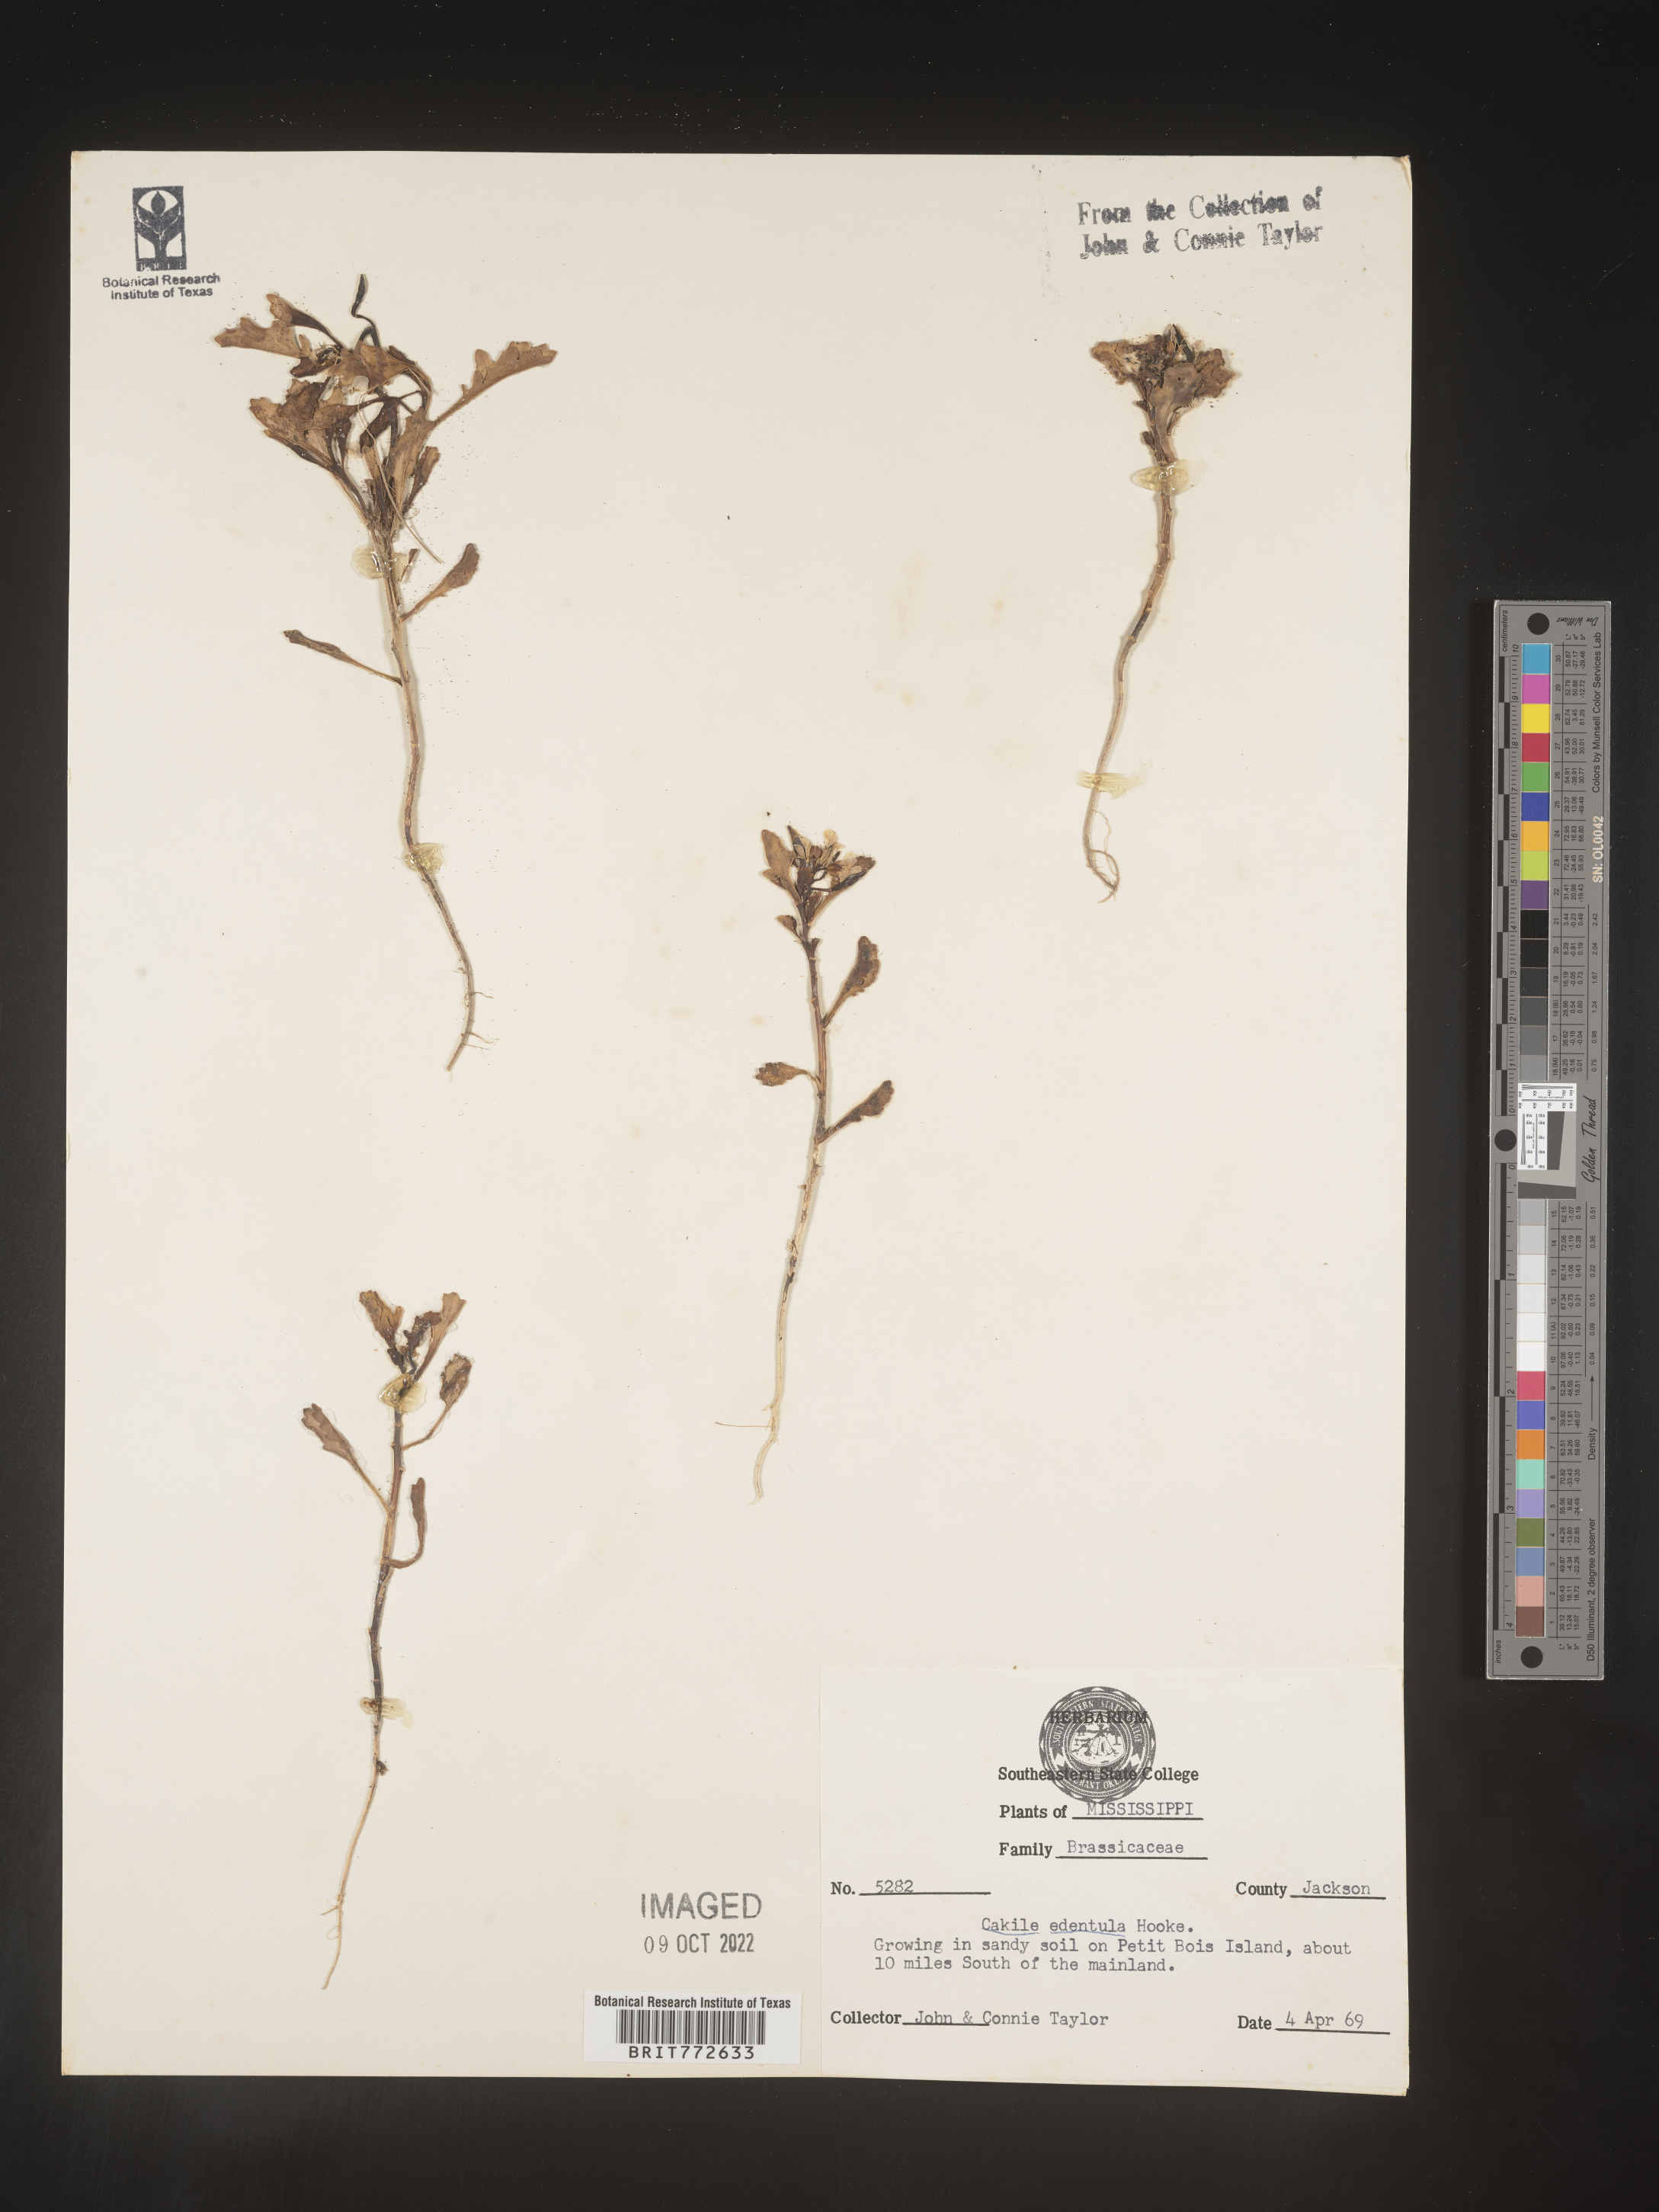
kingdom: Plantae
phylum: Tracheophyta
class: Magnoliopsida
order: Brassicales
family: Brassicaceae
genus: Cakile
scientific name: Cakile edentula
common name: American sea rocket
